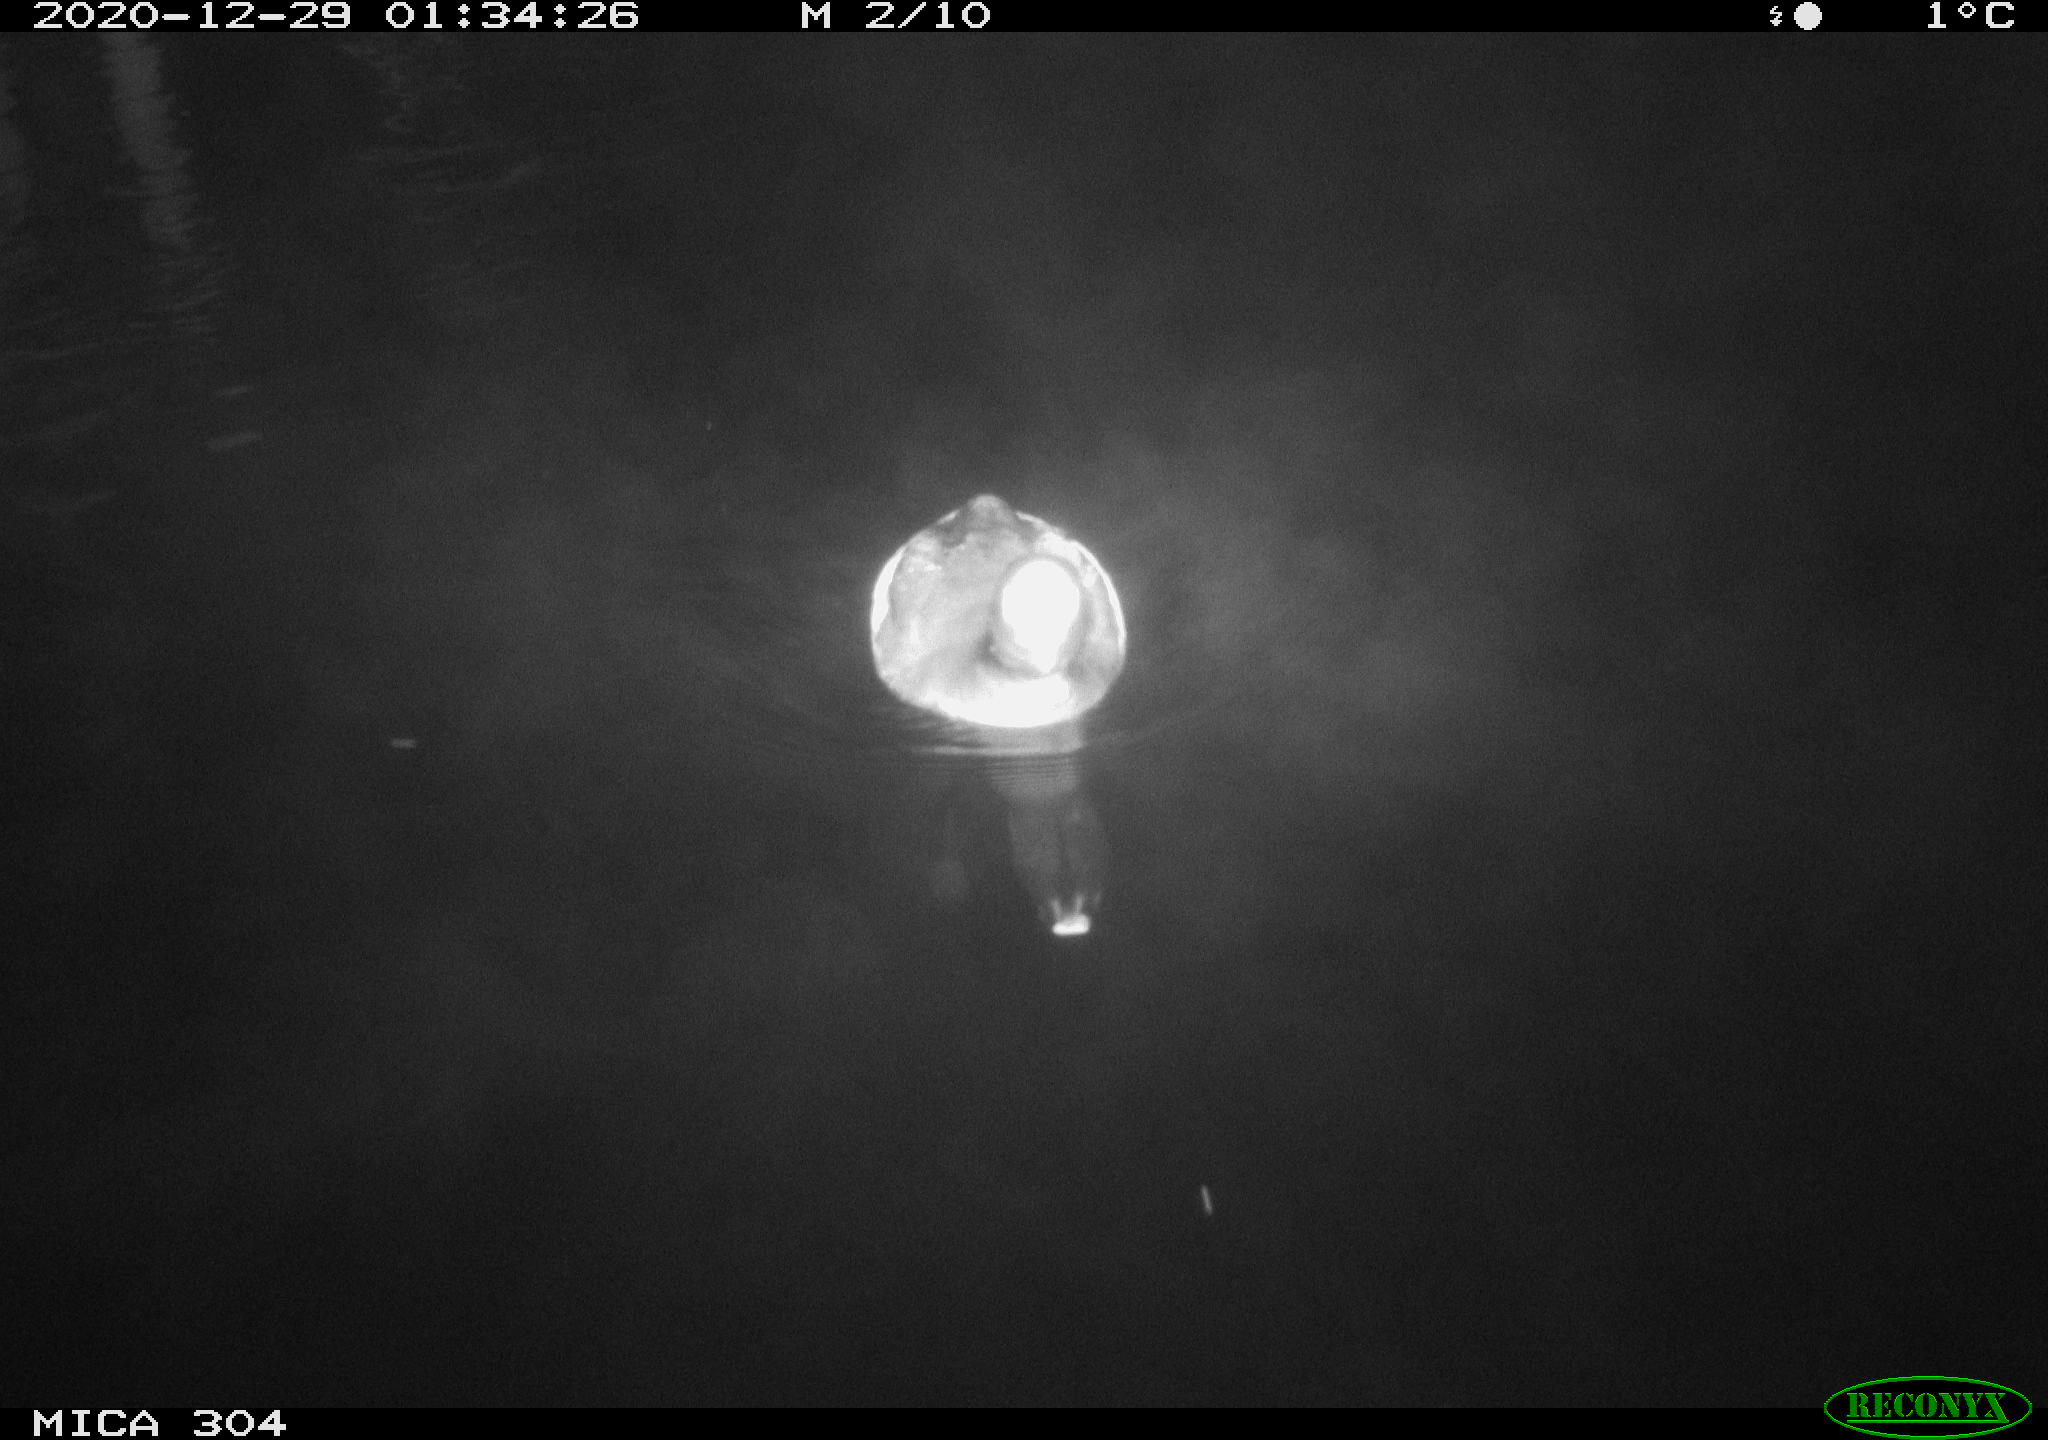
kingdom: Animalia
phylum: Chordata
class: Aves
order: Gruiformes
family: Rallidae
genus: Gallinula
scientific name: Gallinula chloropus
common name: Common moorhen
